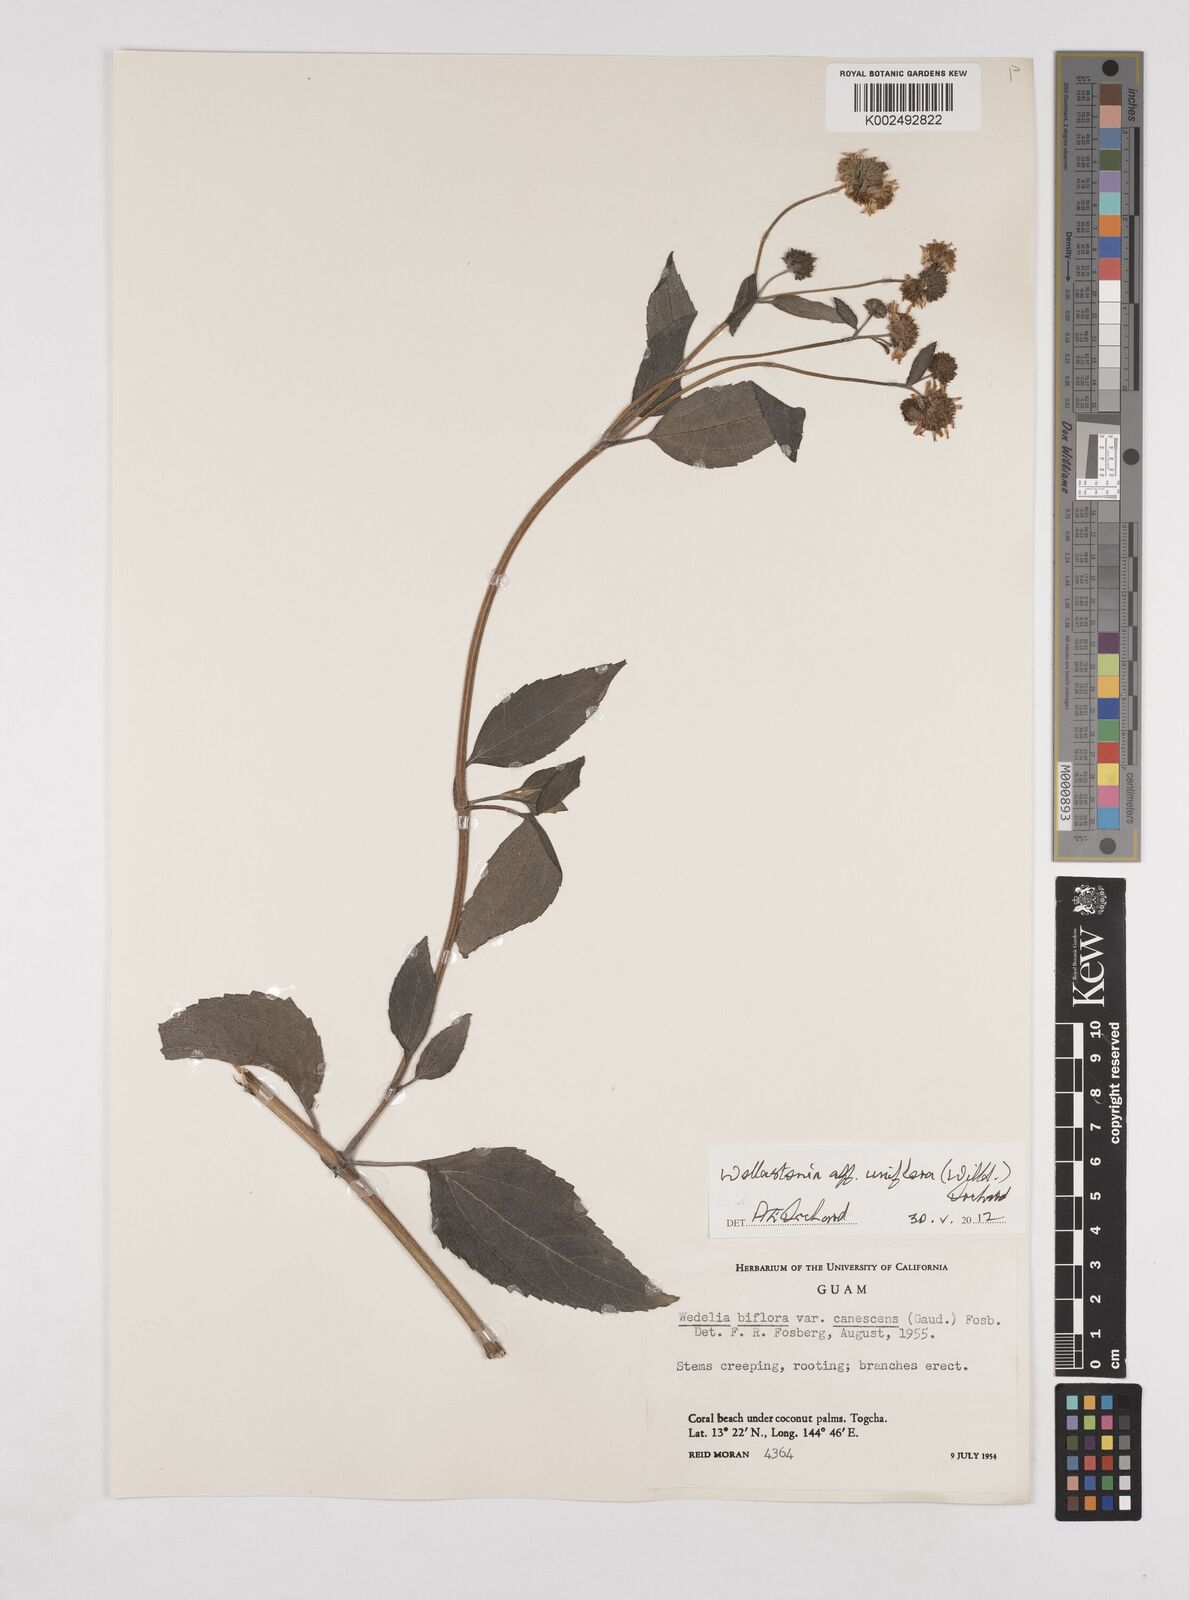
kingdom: Plantae
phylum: Tracheophyta
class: Magnoliopsida
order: Asterales
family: Asteraceae
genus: Wollastonia
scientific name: Wollastonia uniflora
